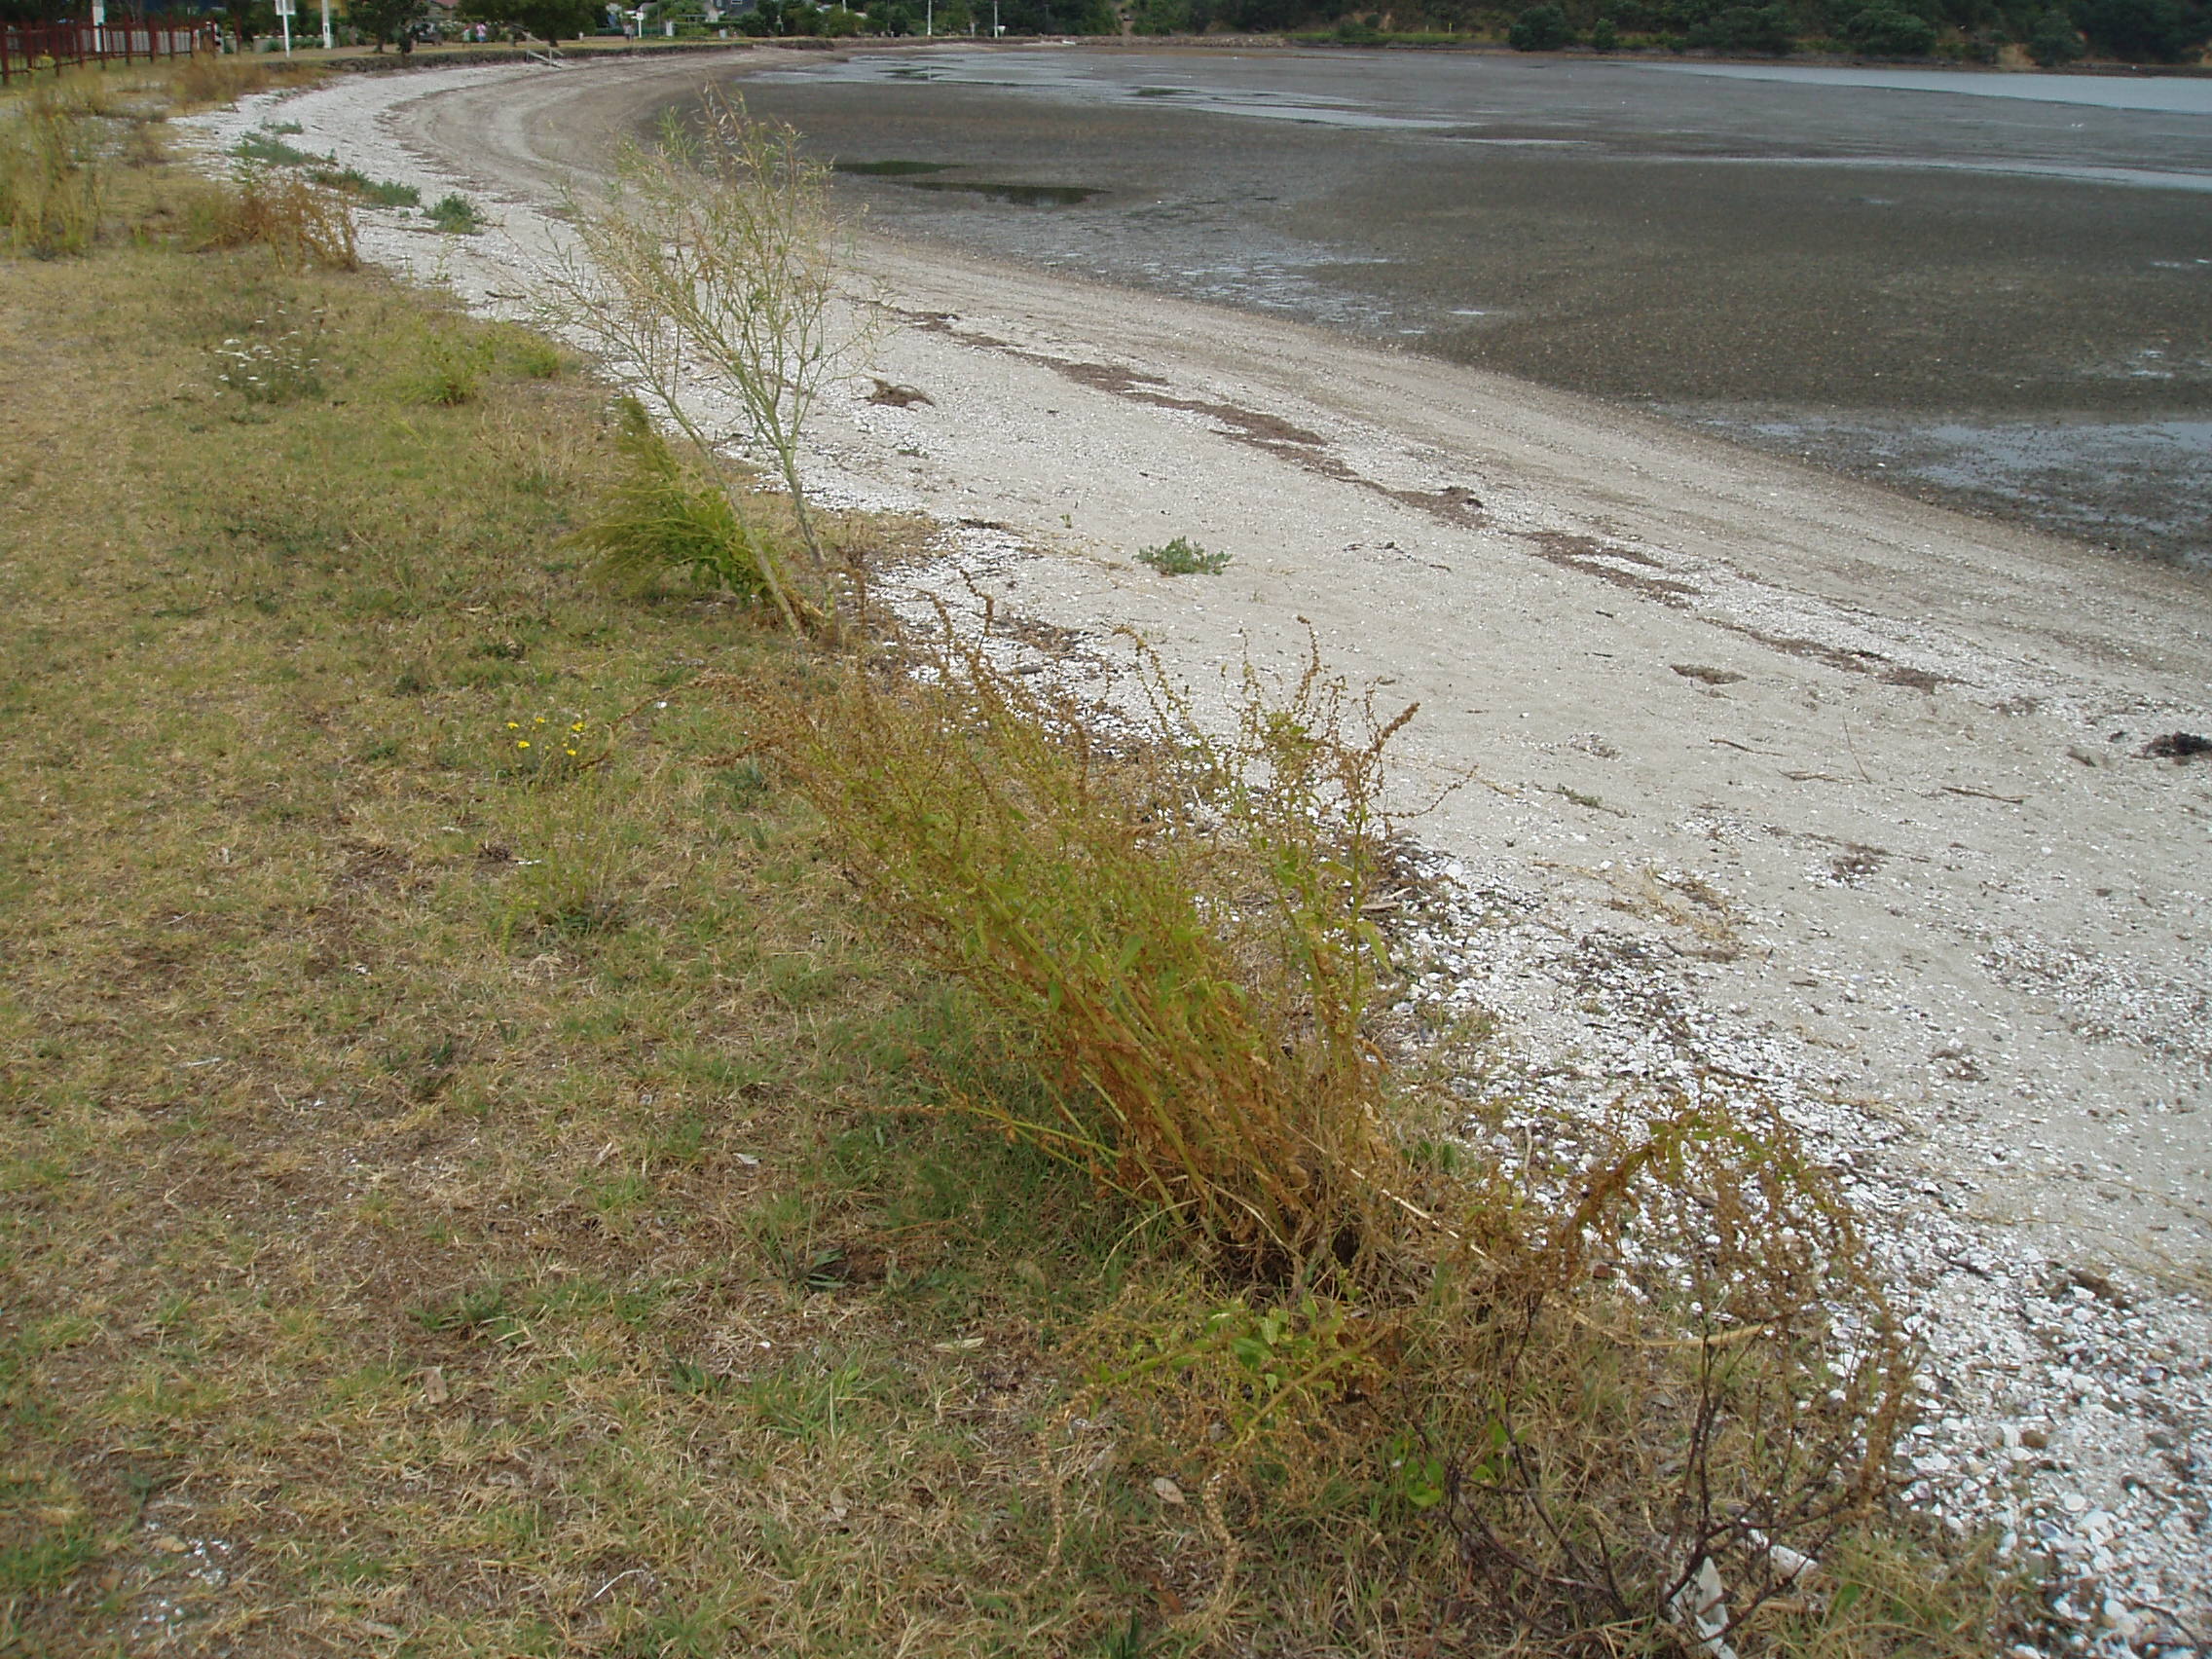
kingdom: Plantae
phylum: Tracheophyta
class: Magnoliopsida
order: Caryophyllales
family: Amaranthaceae
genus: Beta
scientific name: Beta maritima
